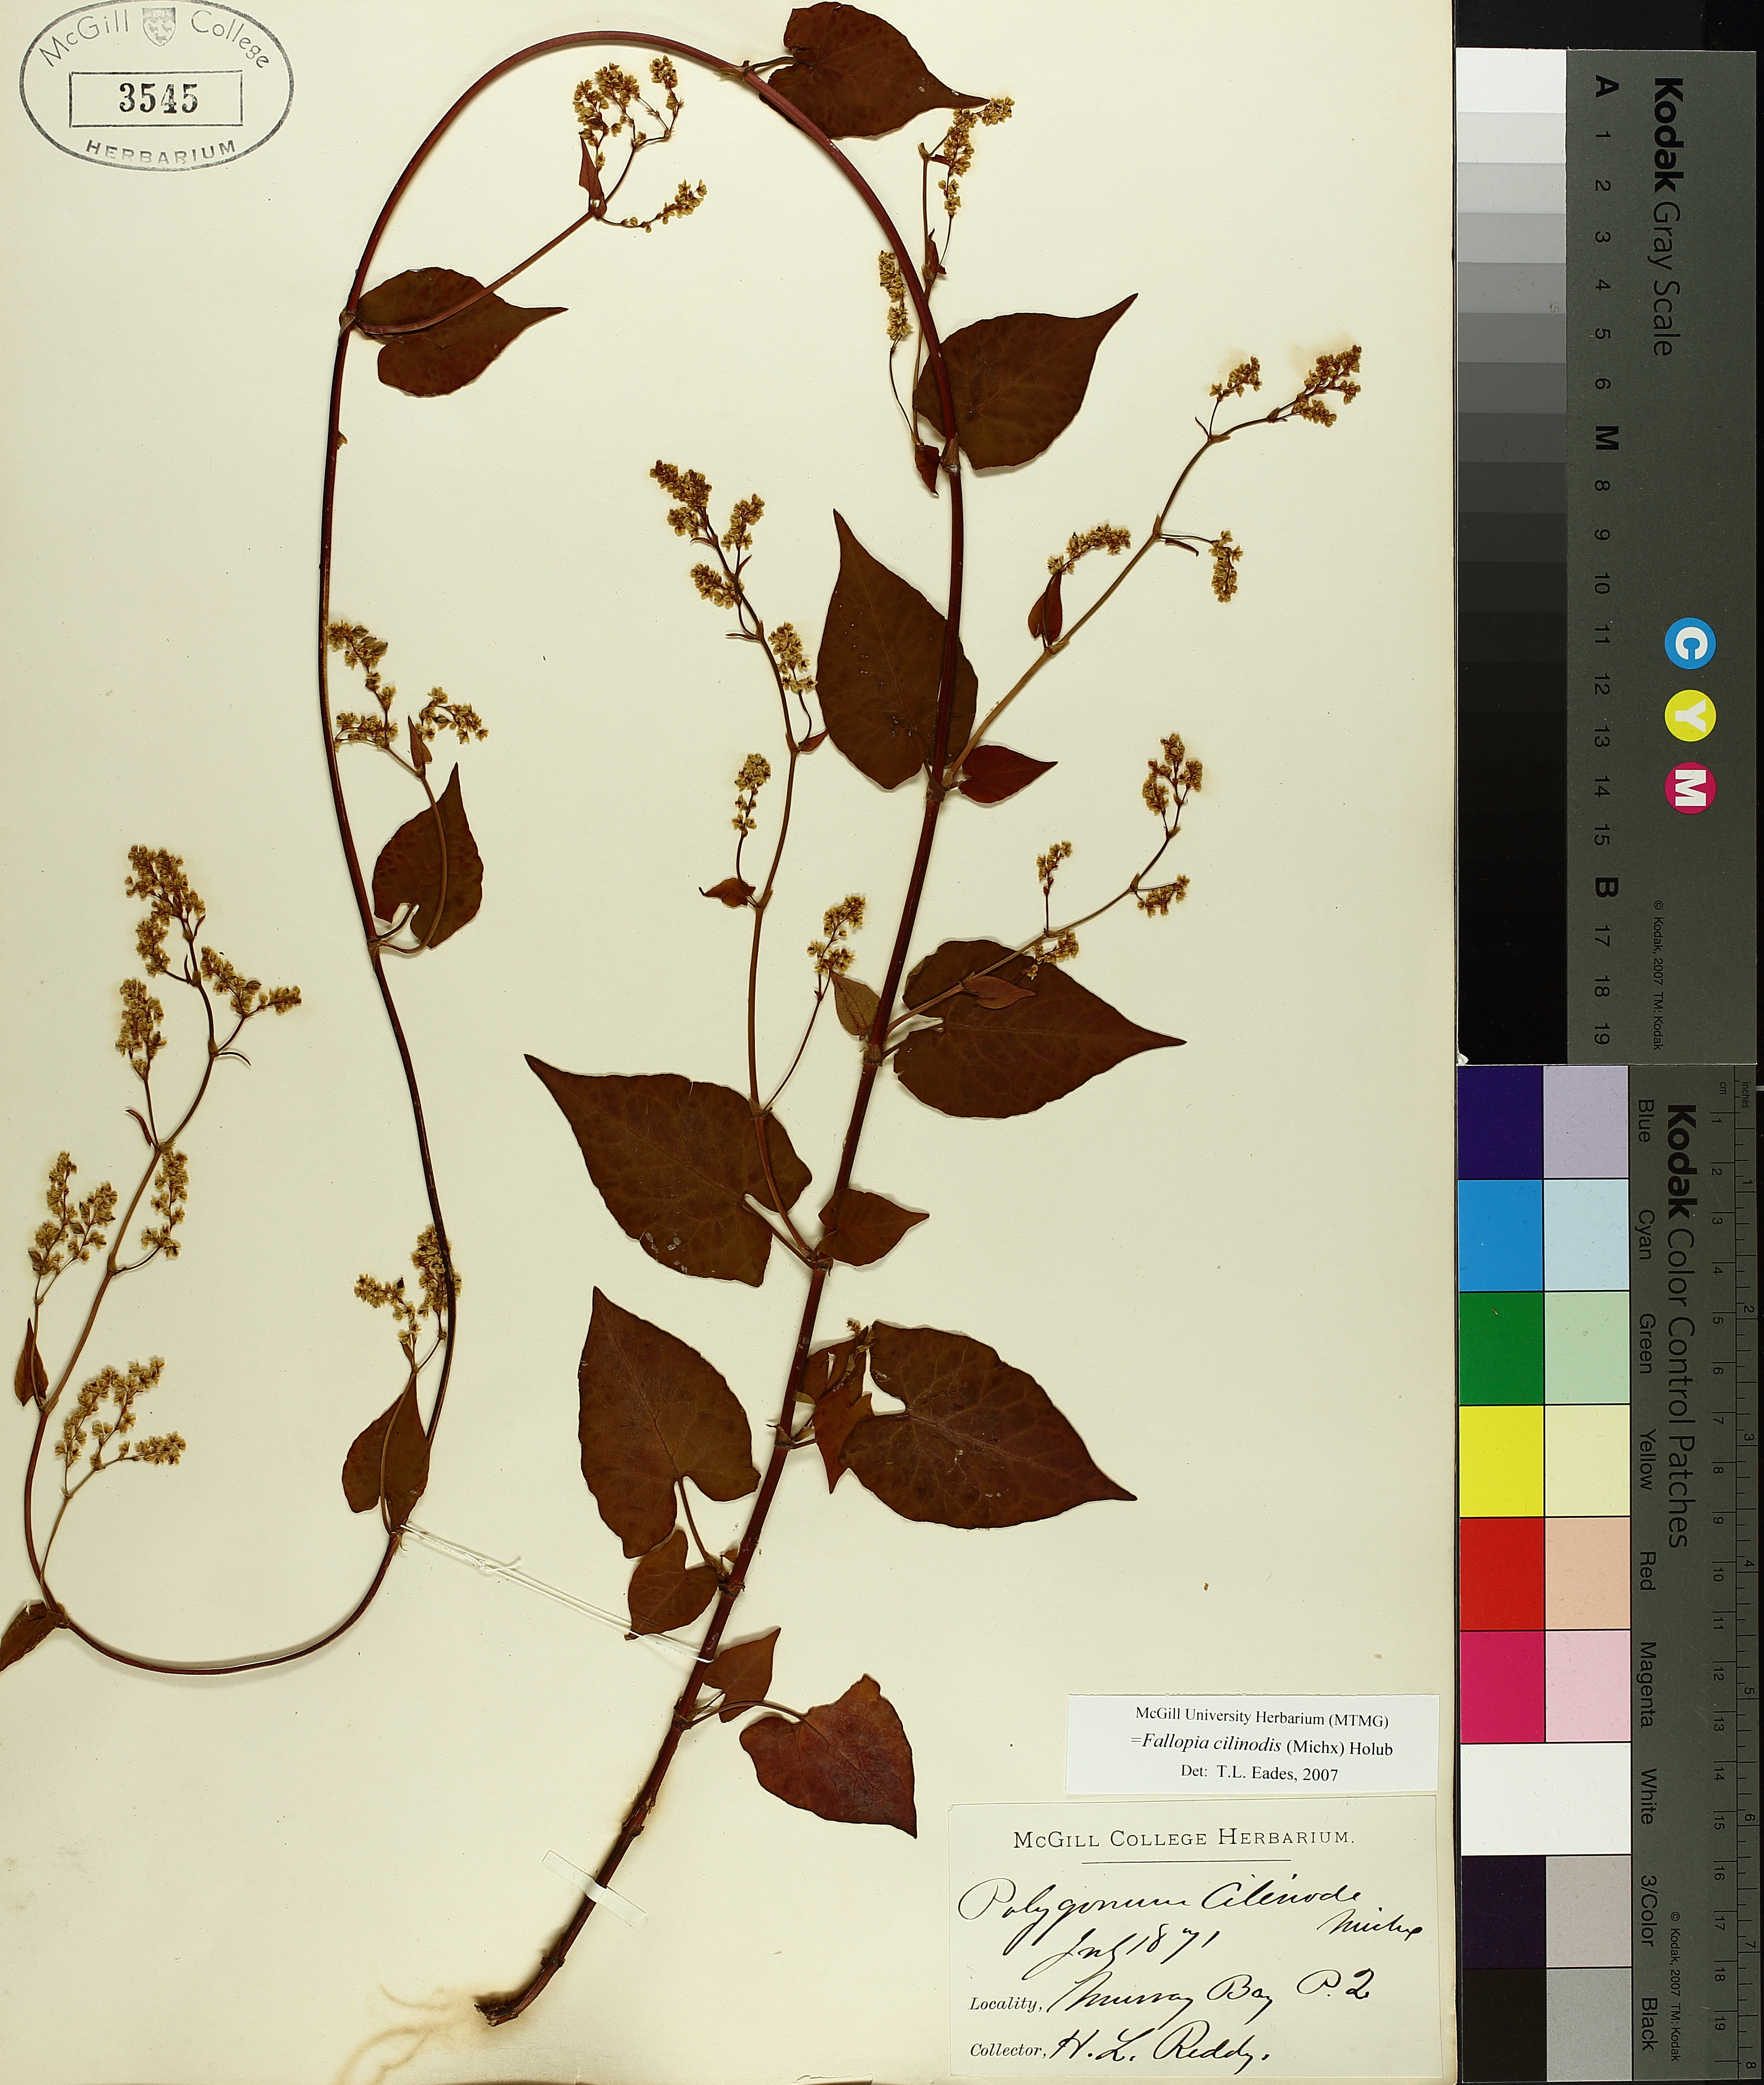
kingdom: Plantae
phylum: Tracheophyta
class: Magnoliopsida
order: Caryophyllales
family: Polygonaceae
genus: Parogonum
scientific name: Parogonum ciliinode
